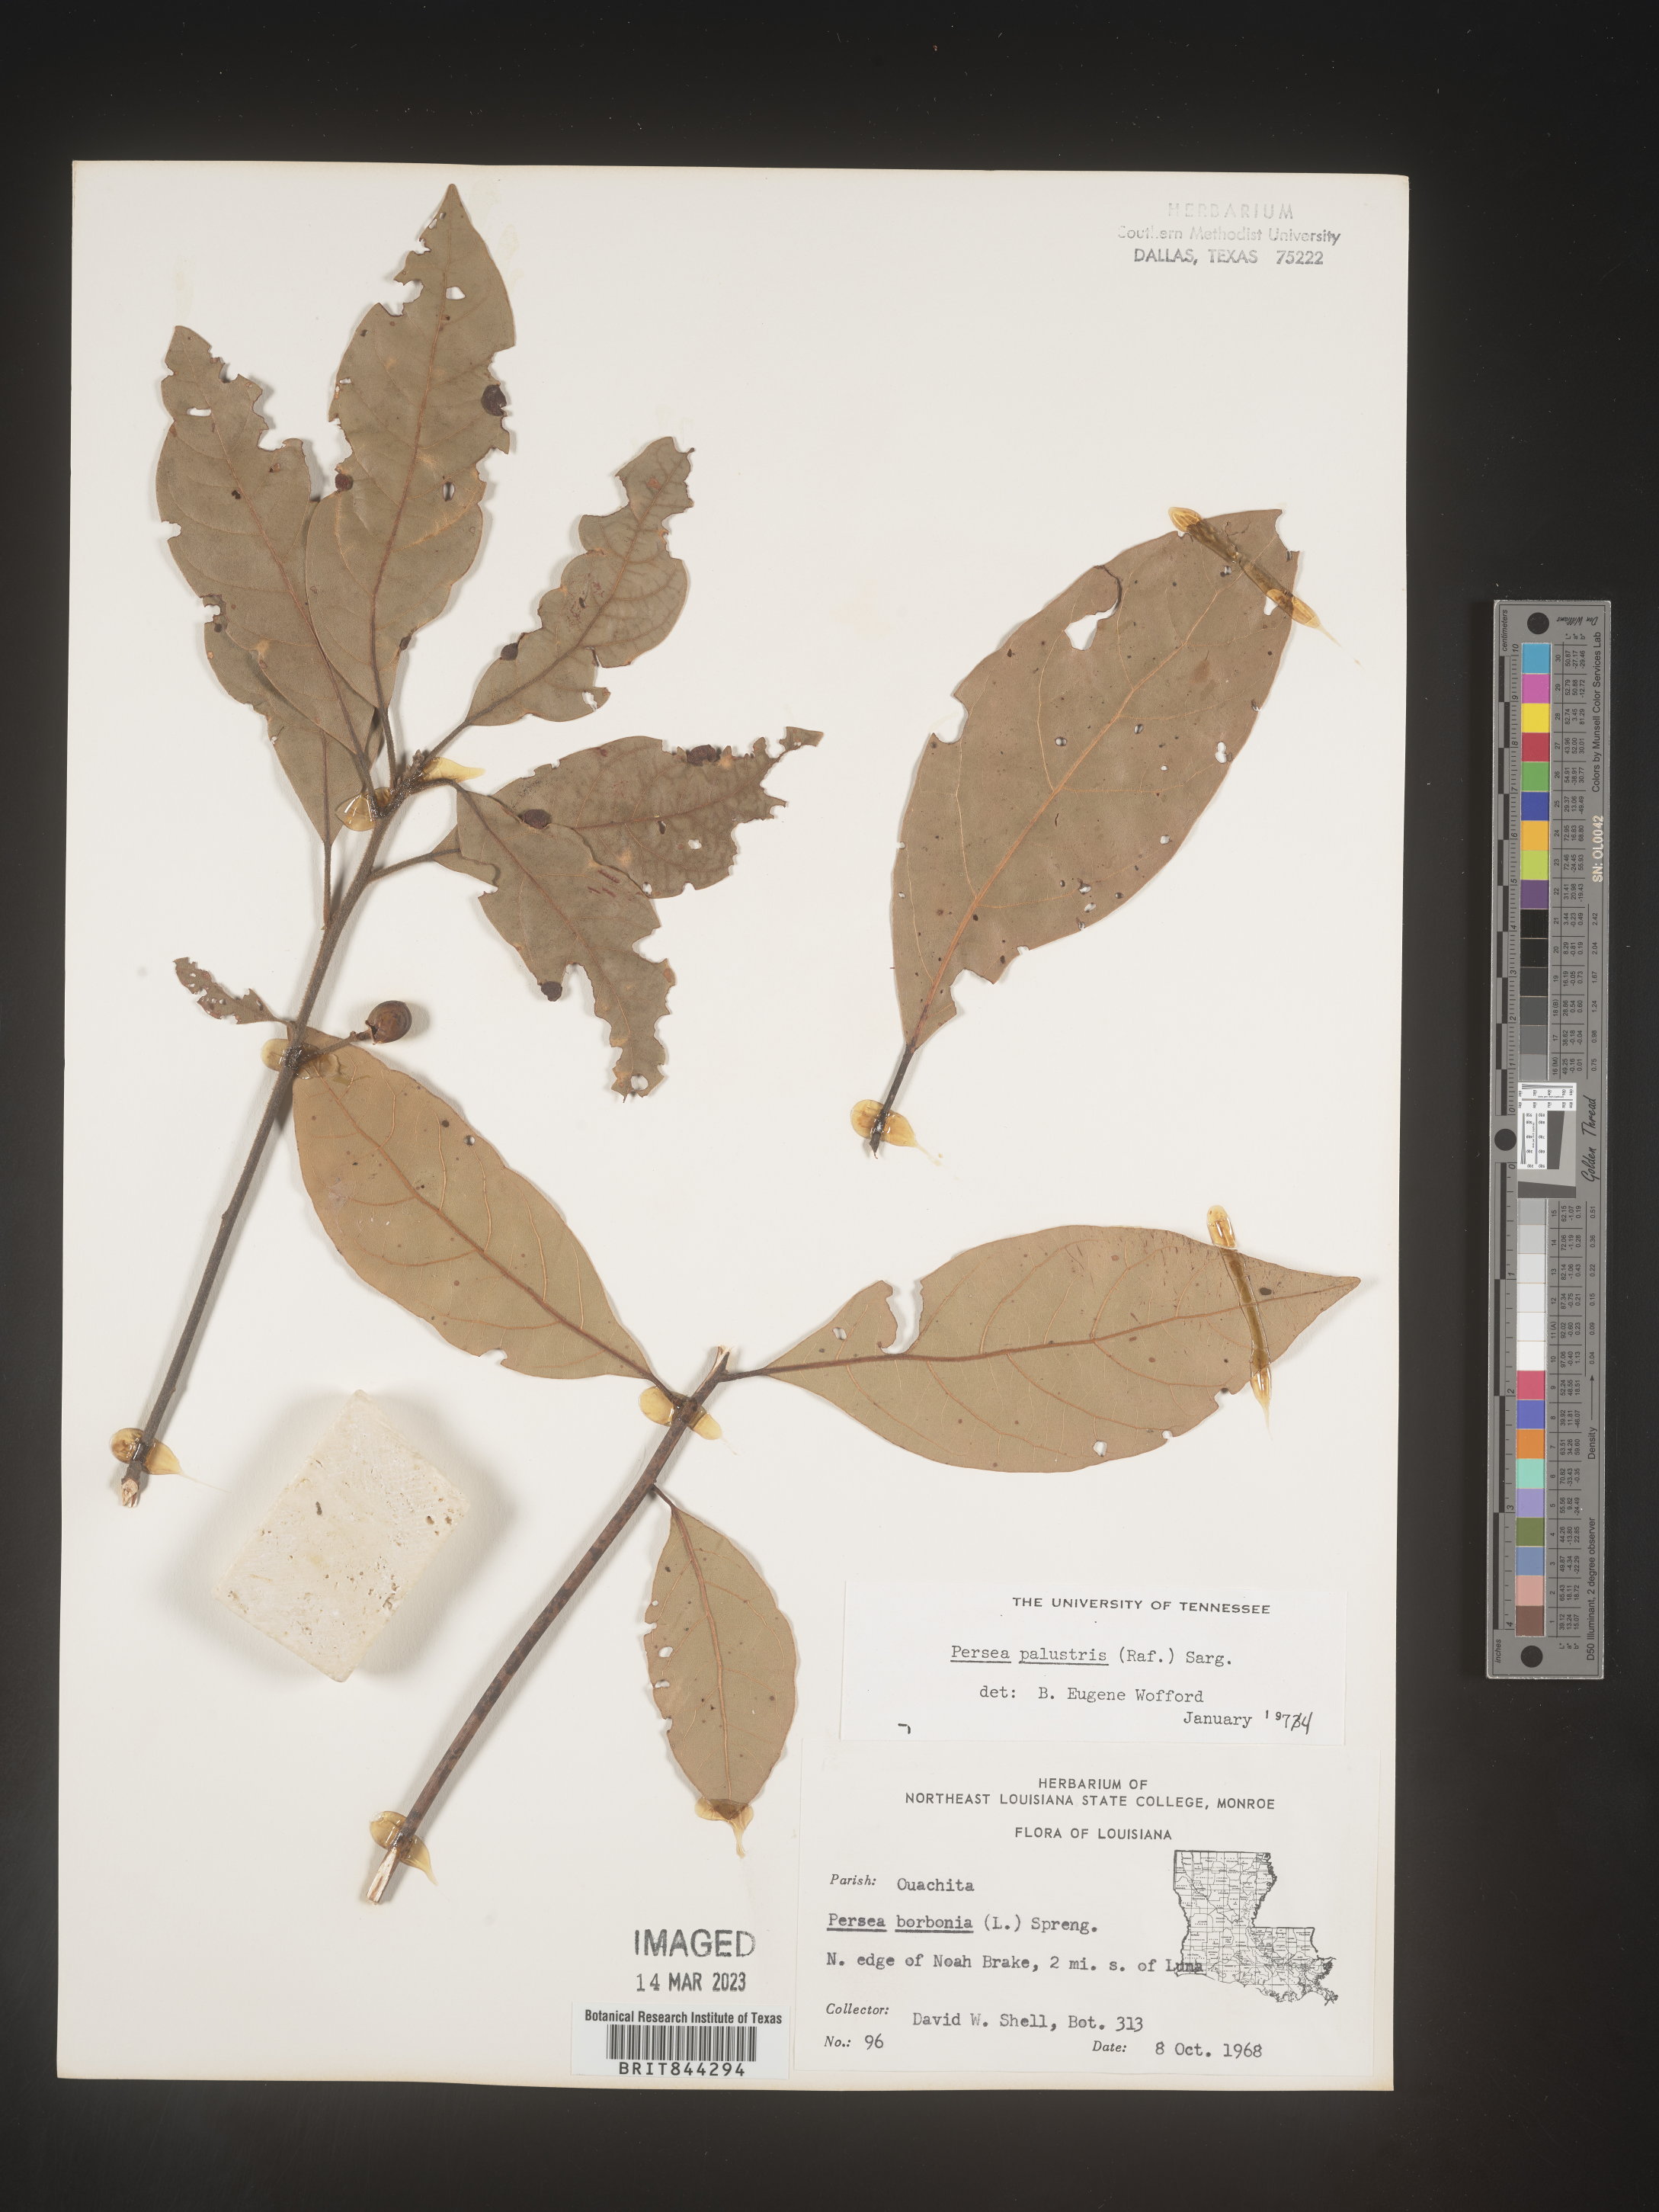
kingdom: Plantae
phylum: Tracheophyta
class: Magnoliopsida
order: Laurales
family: Lauraceae
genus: Persea
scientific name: Persea palustris
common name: Swampbay
